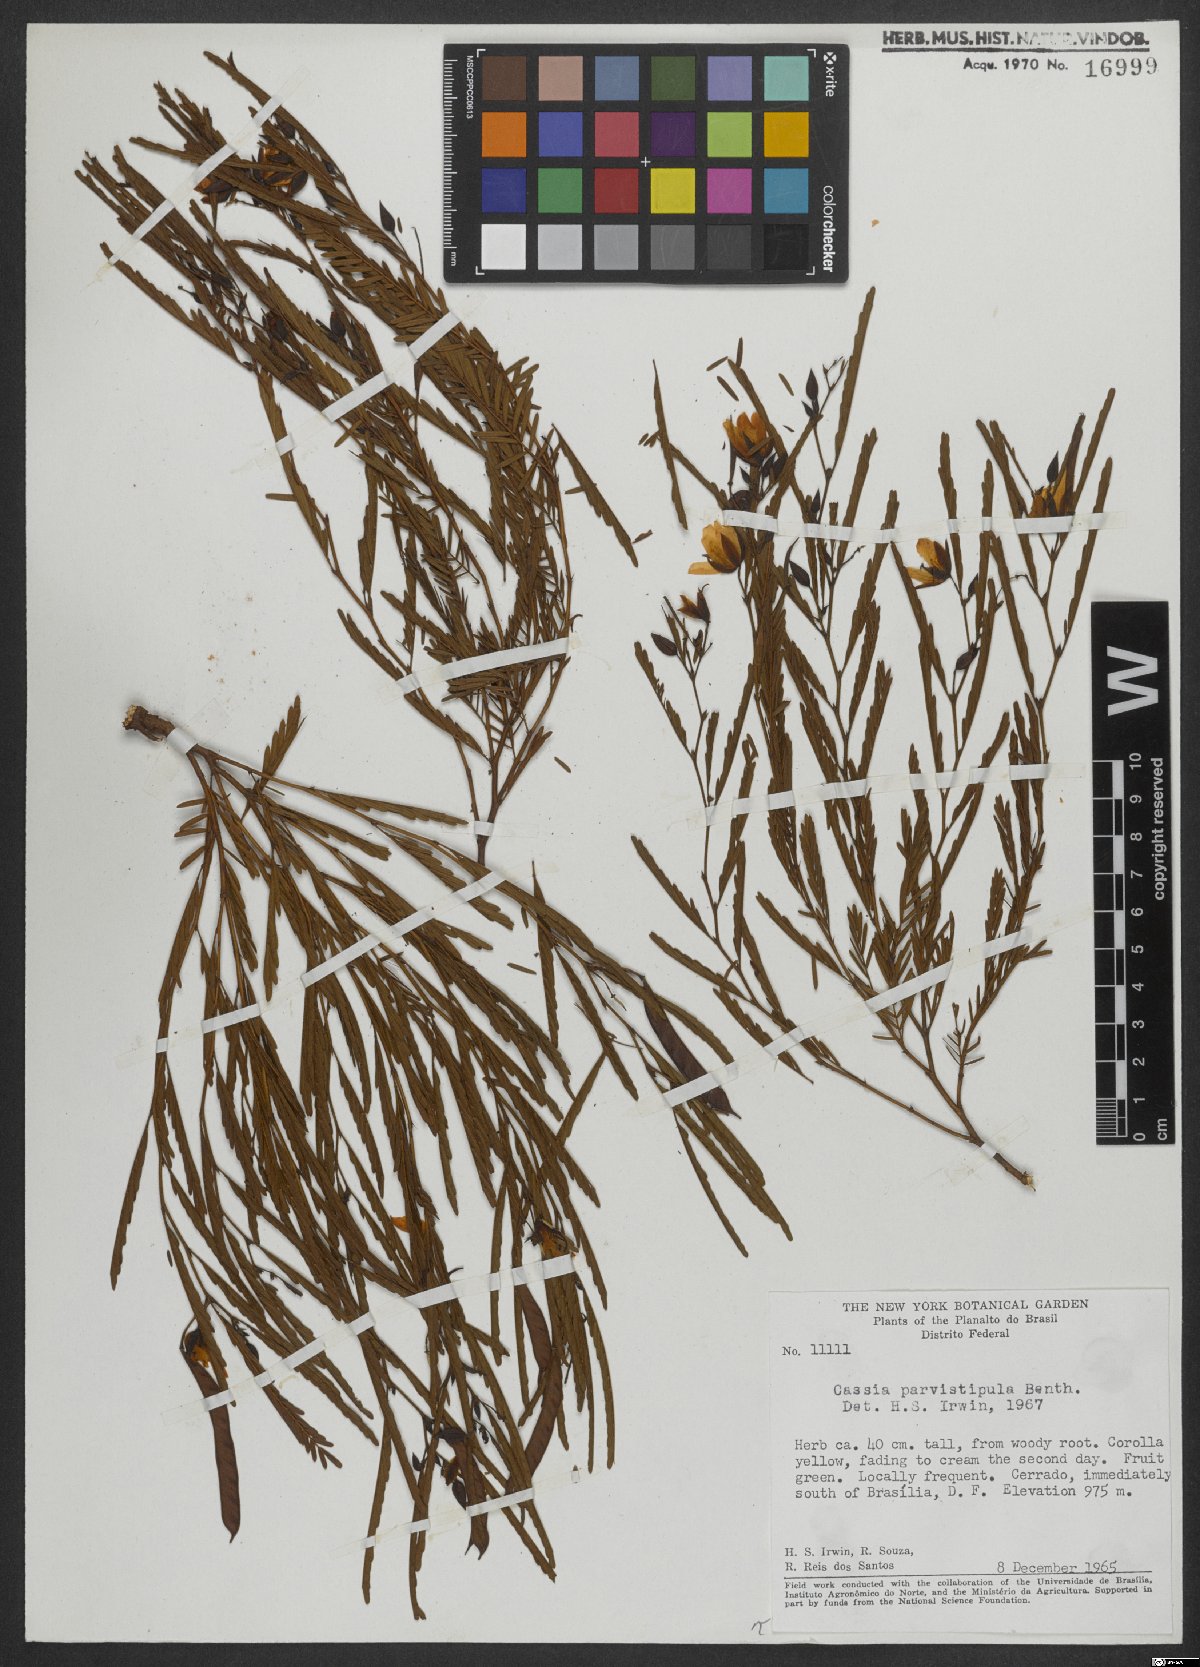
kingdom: Plantae
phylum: Tracheophyta
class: Magnoliopsida
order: Fabales
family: Fabaceae
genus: Chamaecrista
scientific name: Chamaecrista parvistipula
